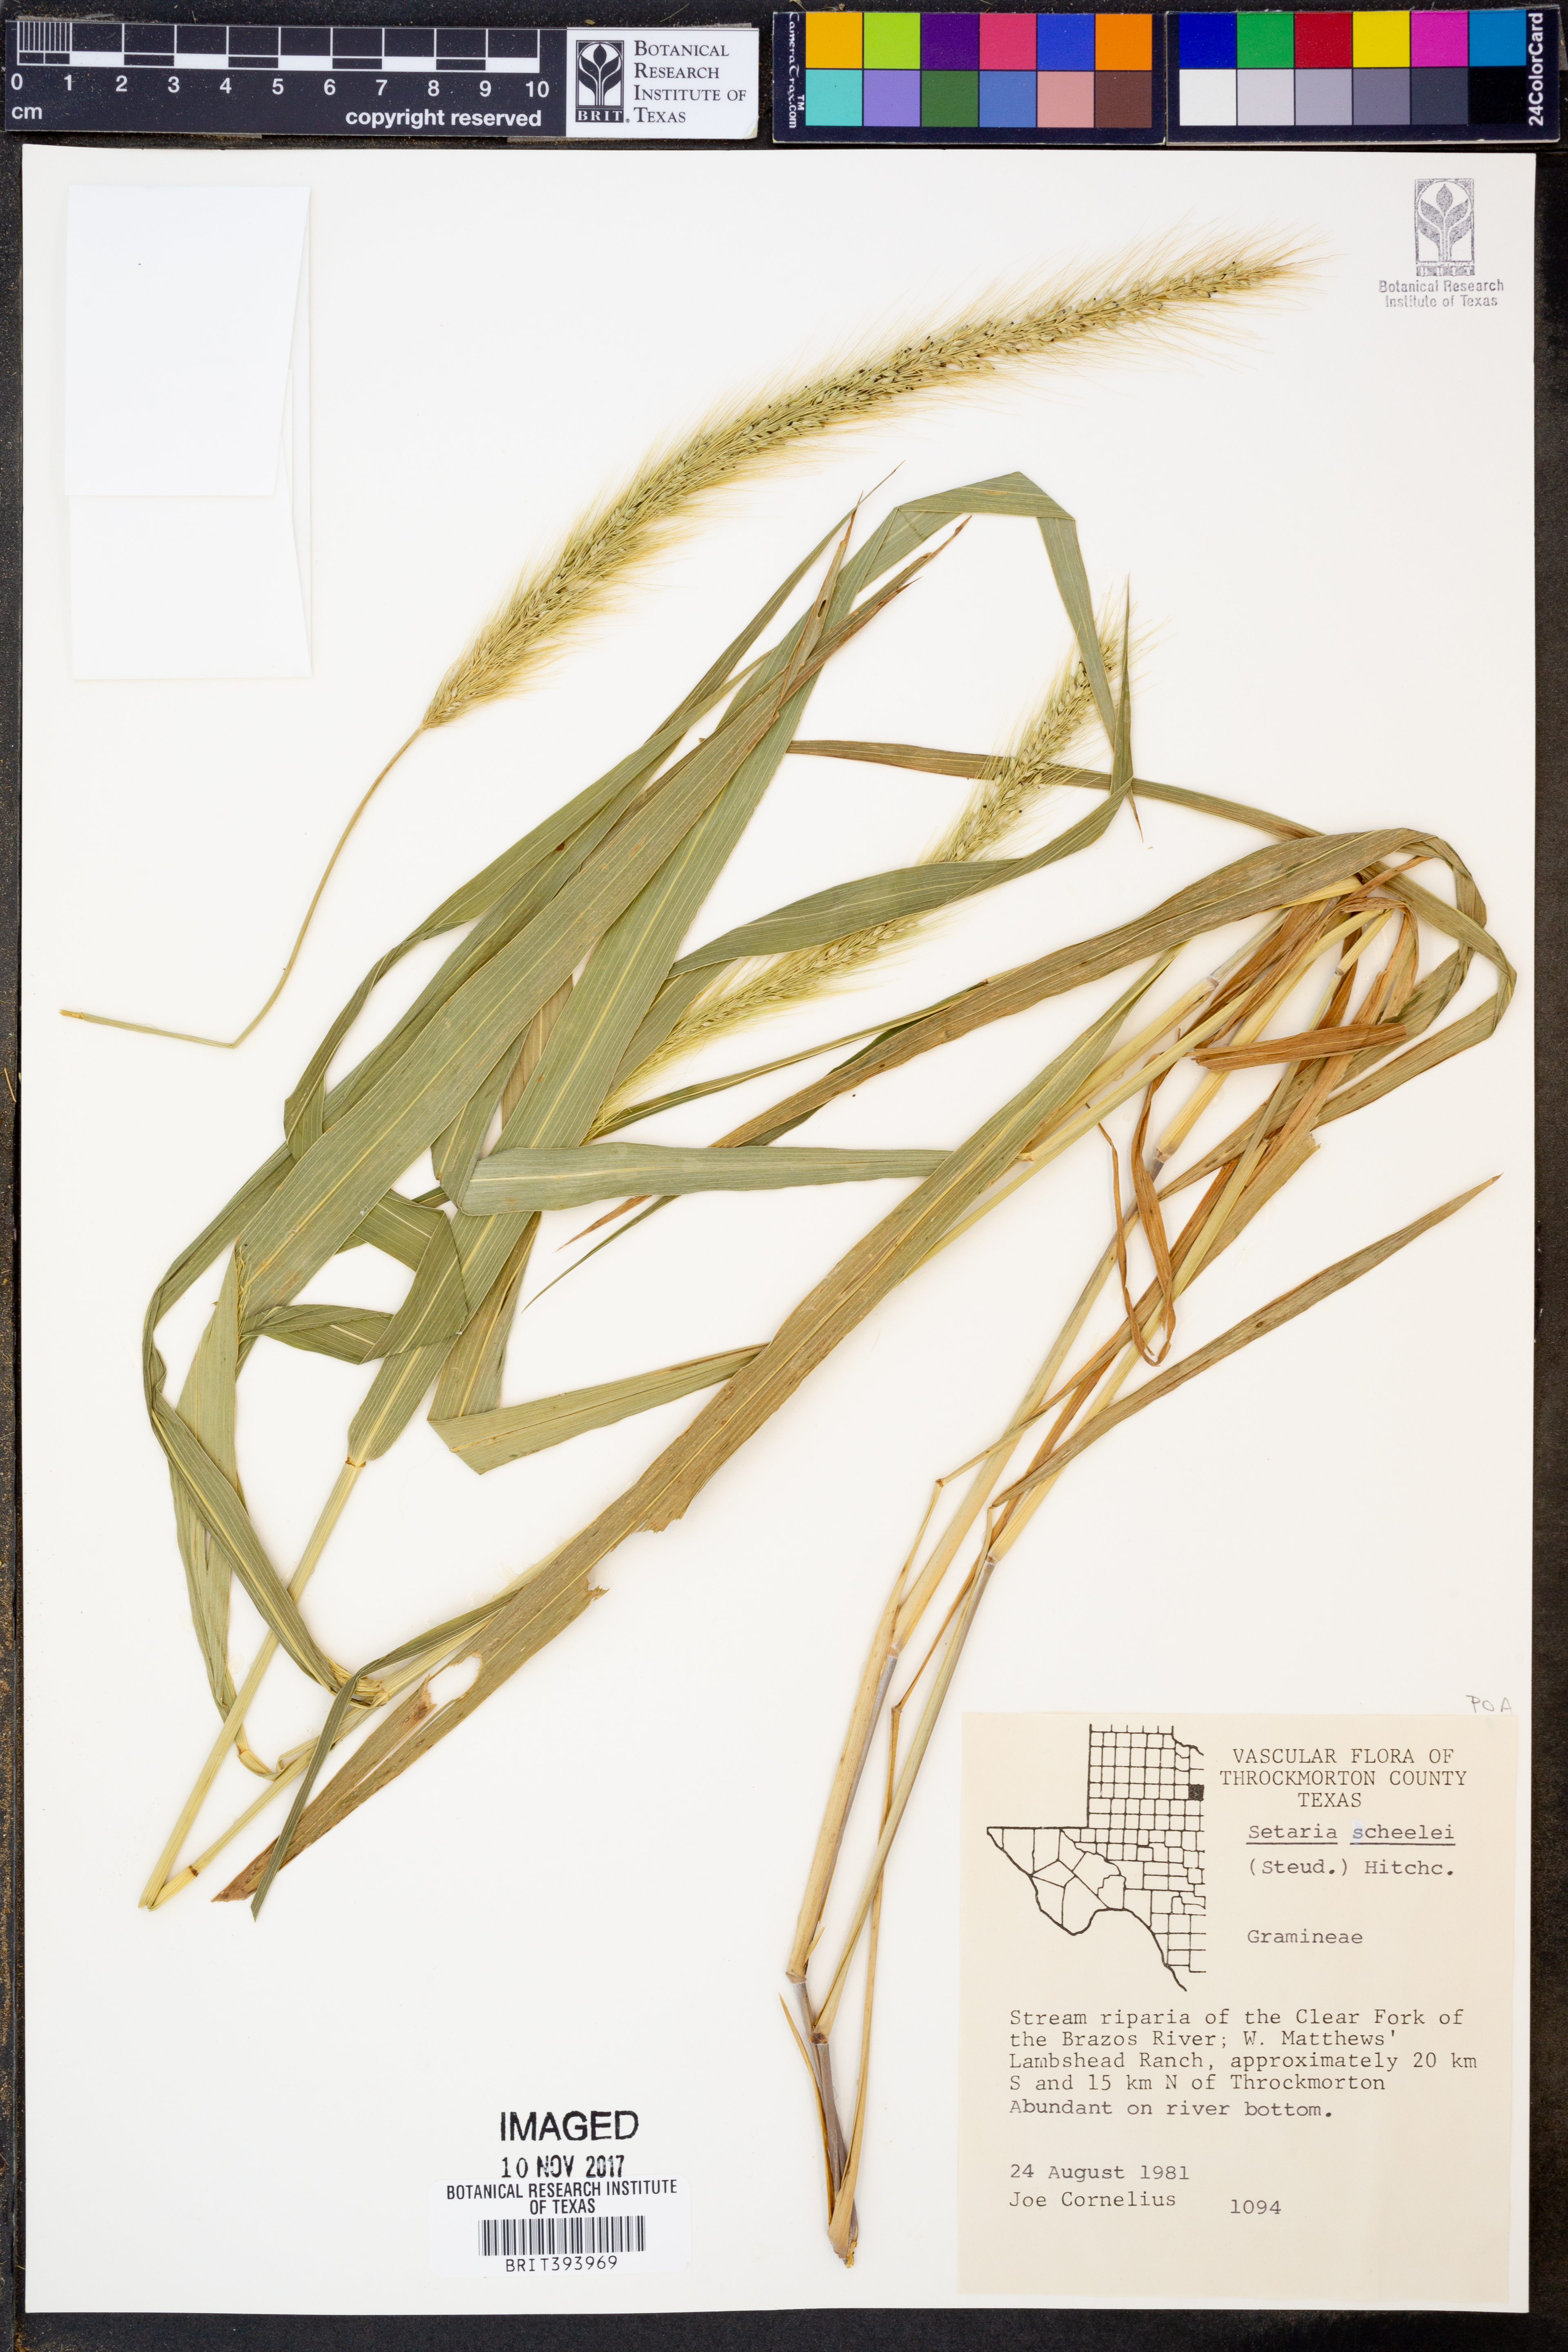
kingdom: Plantae
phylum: Tracheophyta
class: Liliopsida
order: Poales
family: Poaceae
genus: Setaria
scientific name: Setaria scheelei
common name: Southwestern bristle grass
